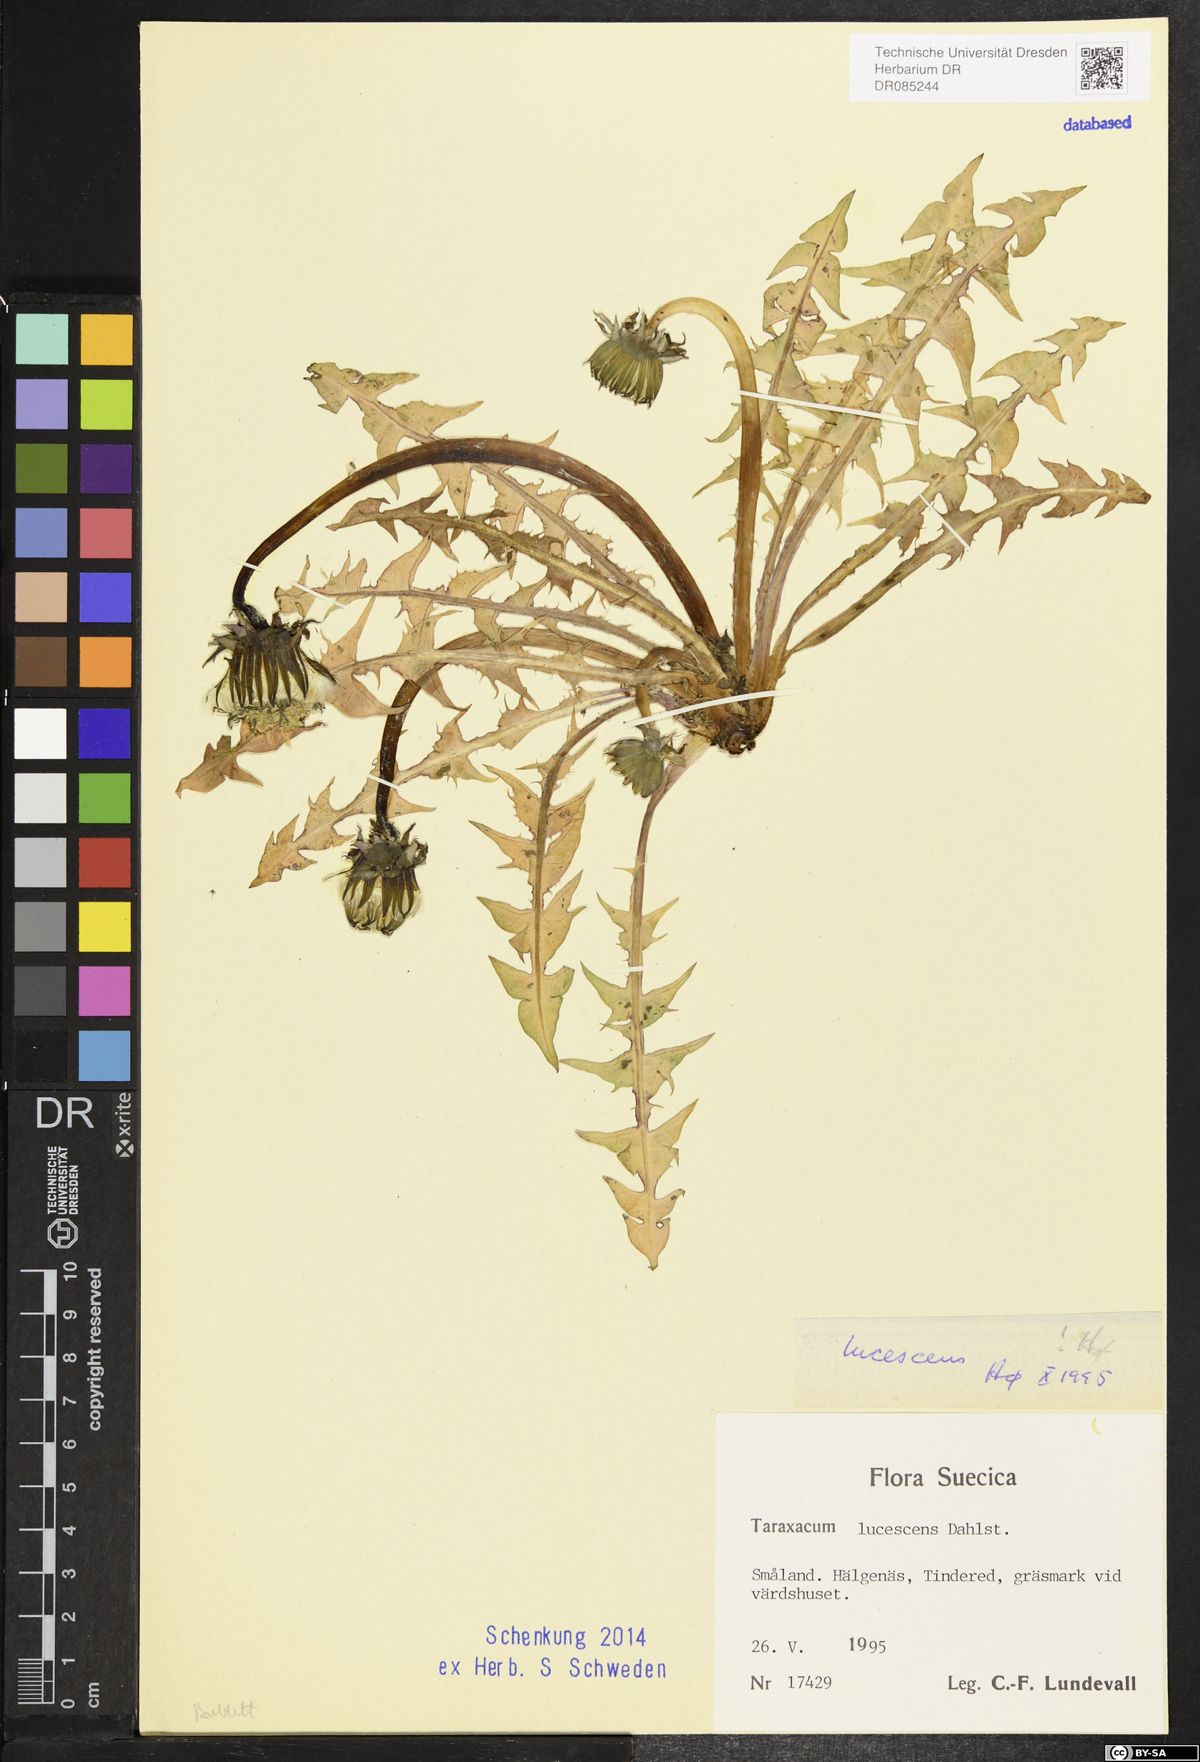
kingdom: Plantae
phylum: Tracheophyta
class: Magnoliopsida
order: Asterales
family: Asteraceae
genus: Taraxacum
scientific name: Taraxacum lucescens
